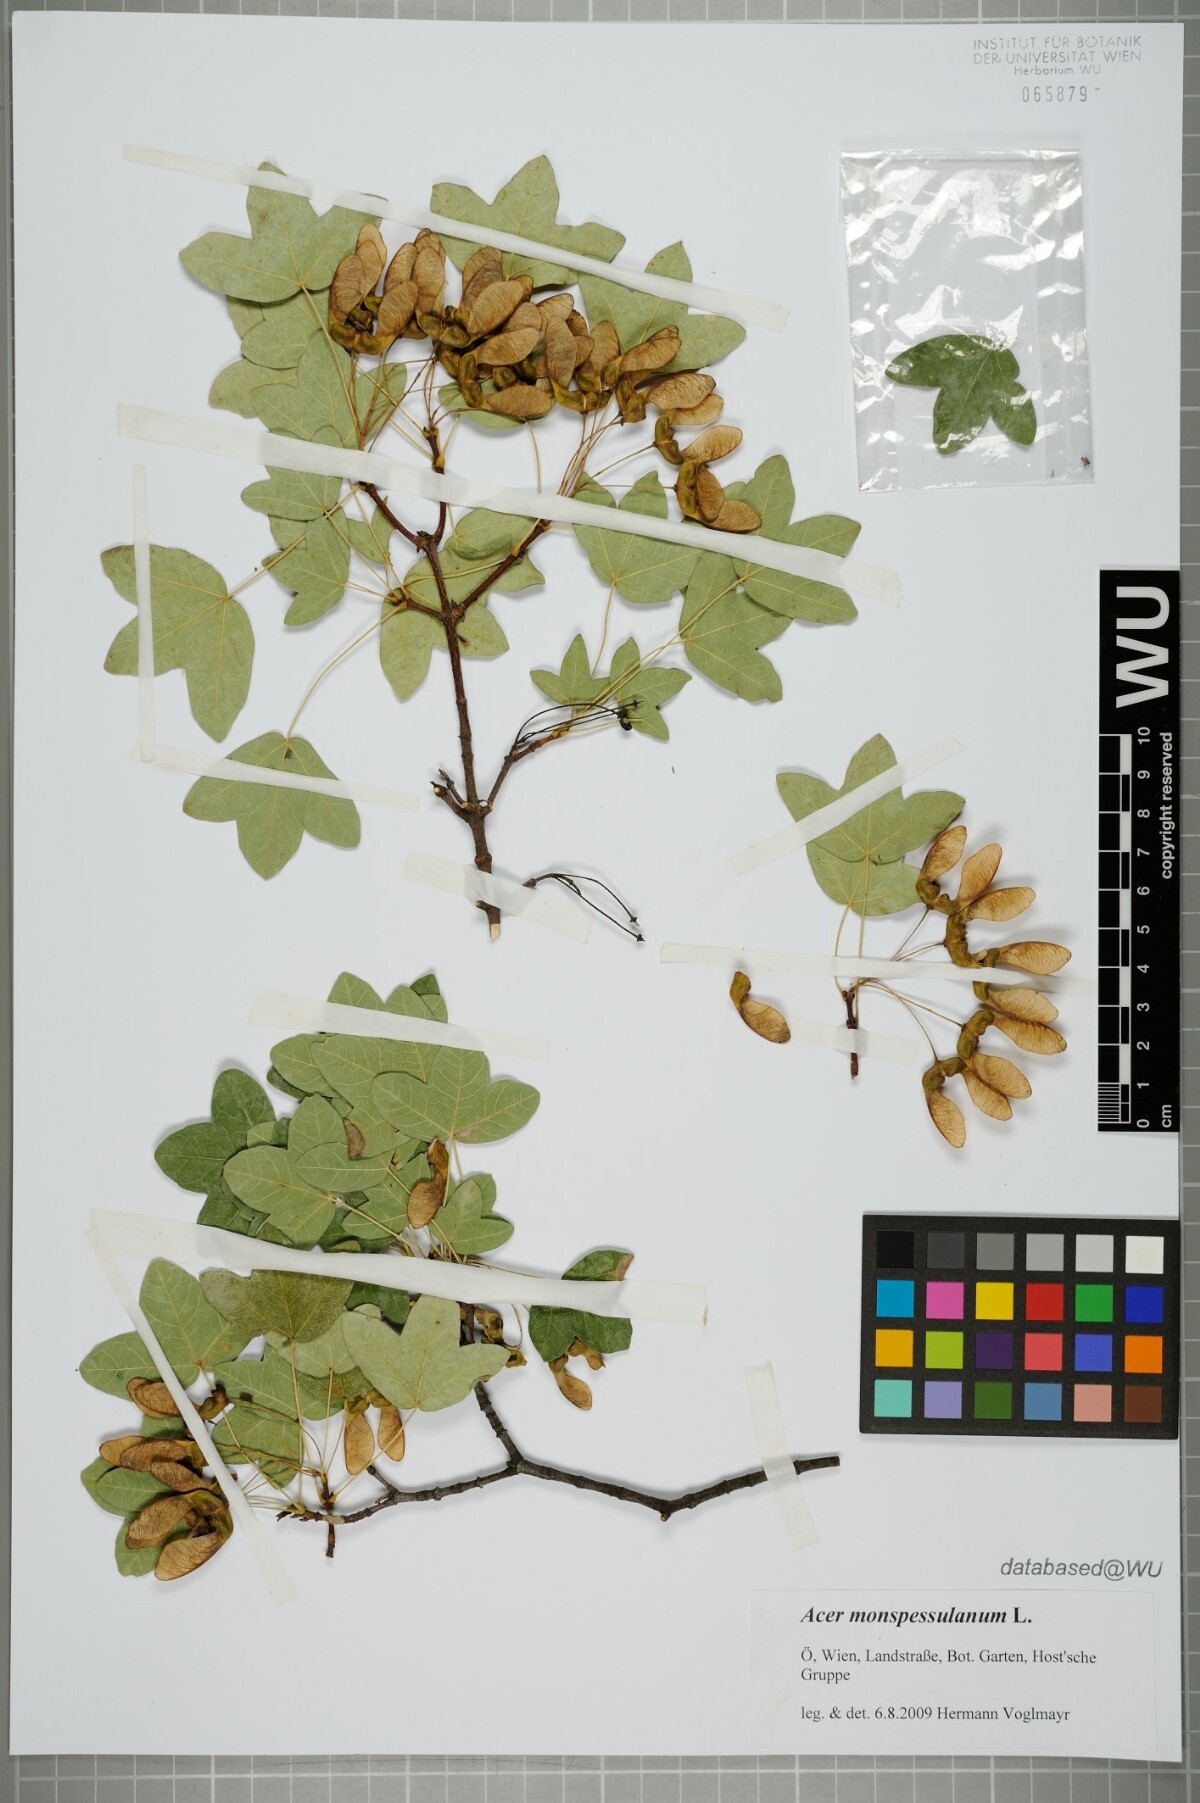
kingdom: Plantae
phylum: Tracheophyta
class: Magnoliopsida
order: Sapindales
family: Sapindaceae
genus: Acer
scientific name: Acer monspessulanum
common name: Montpellier maple
